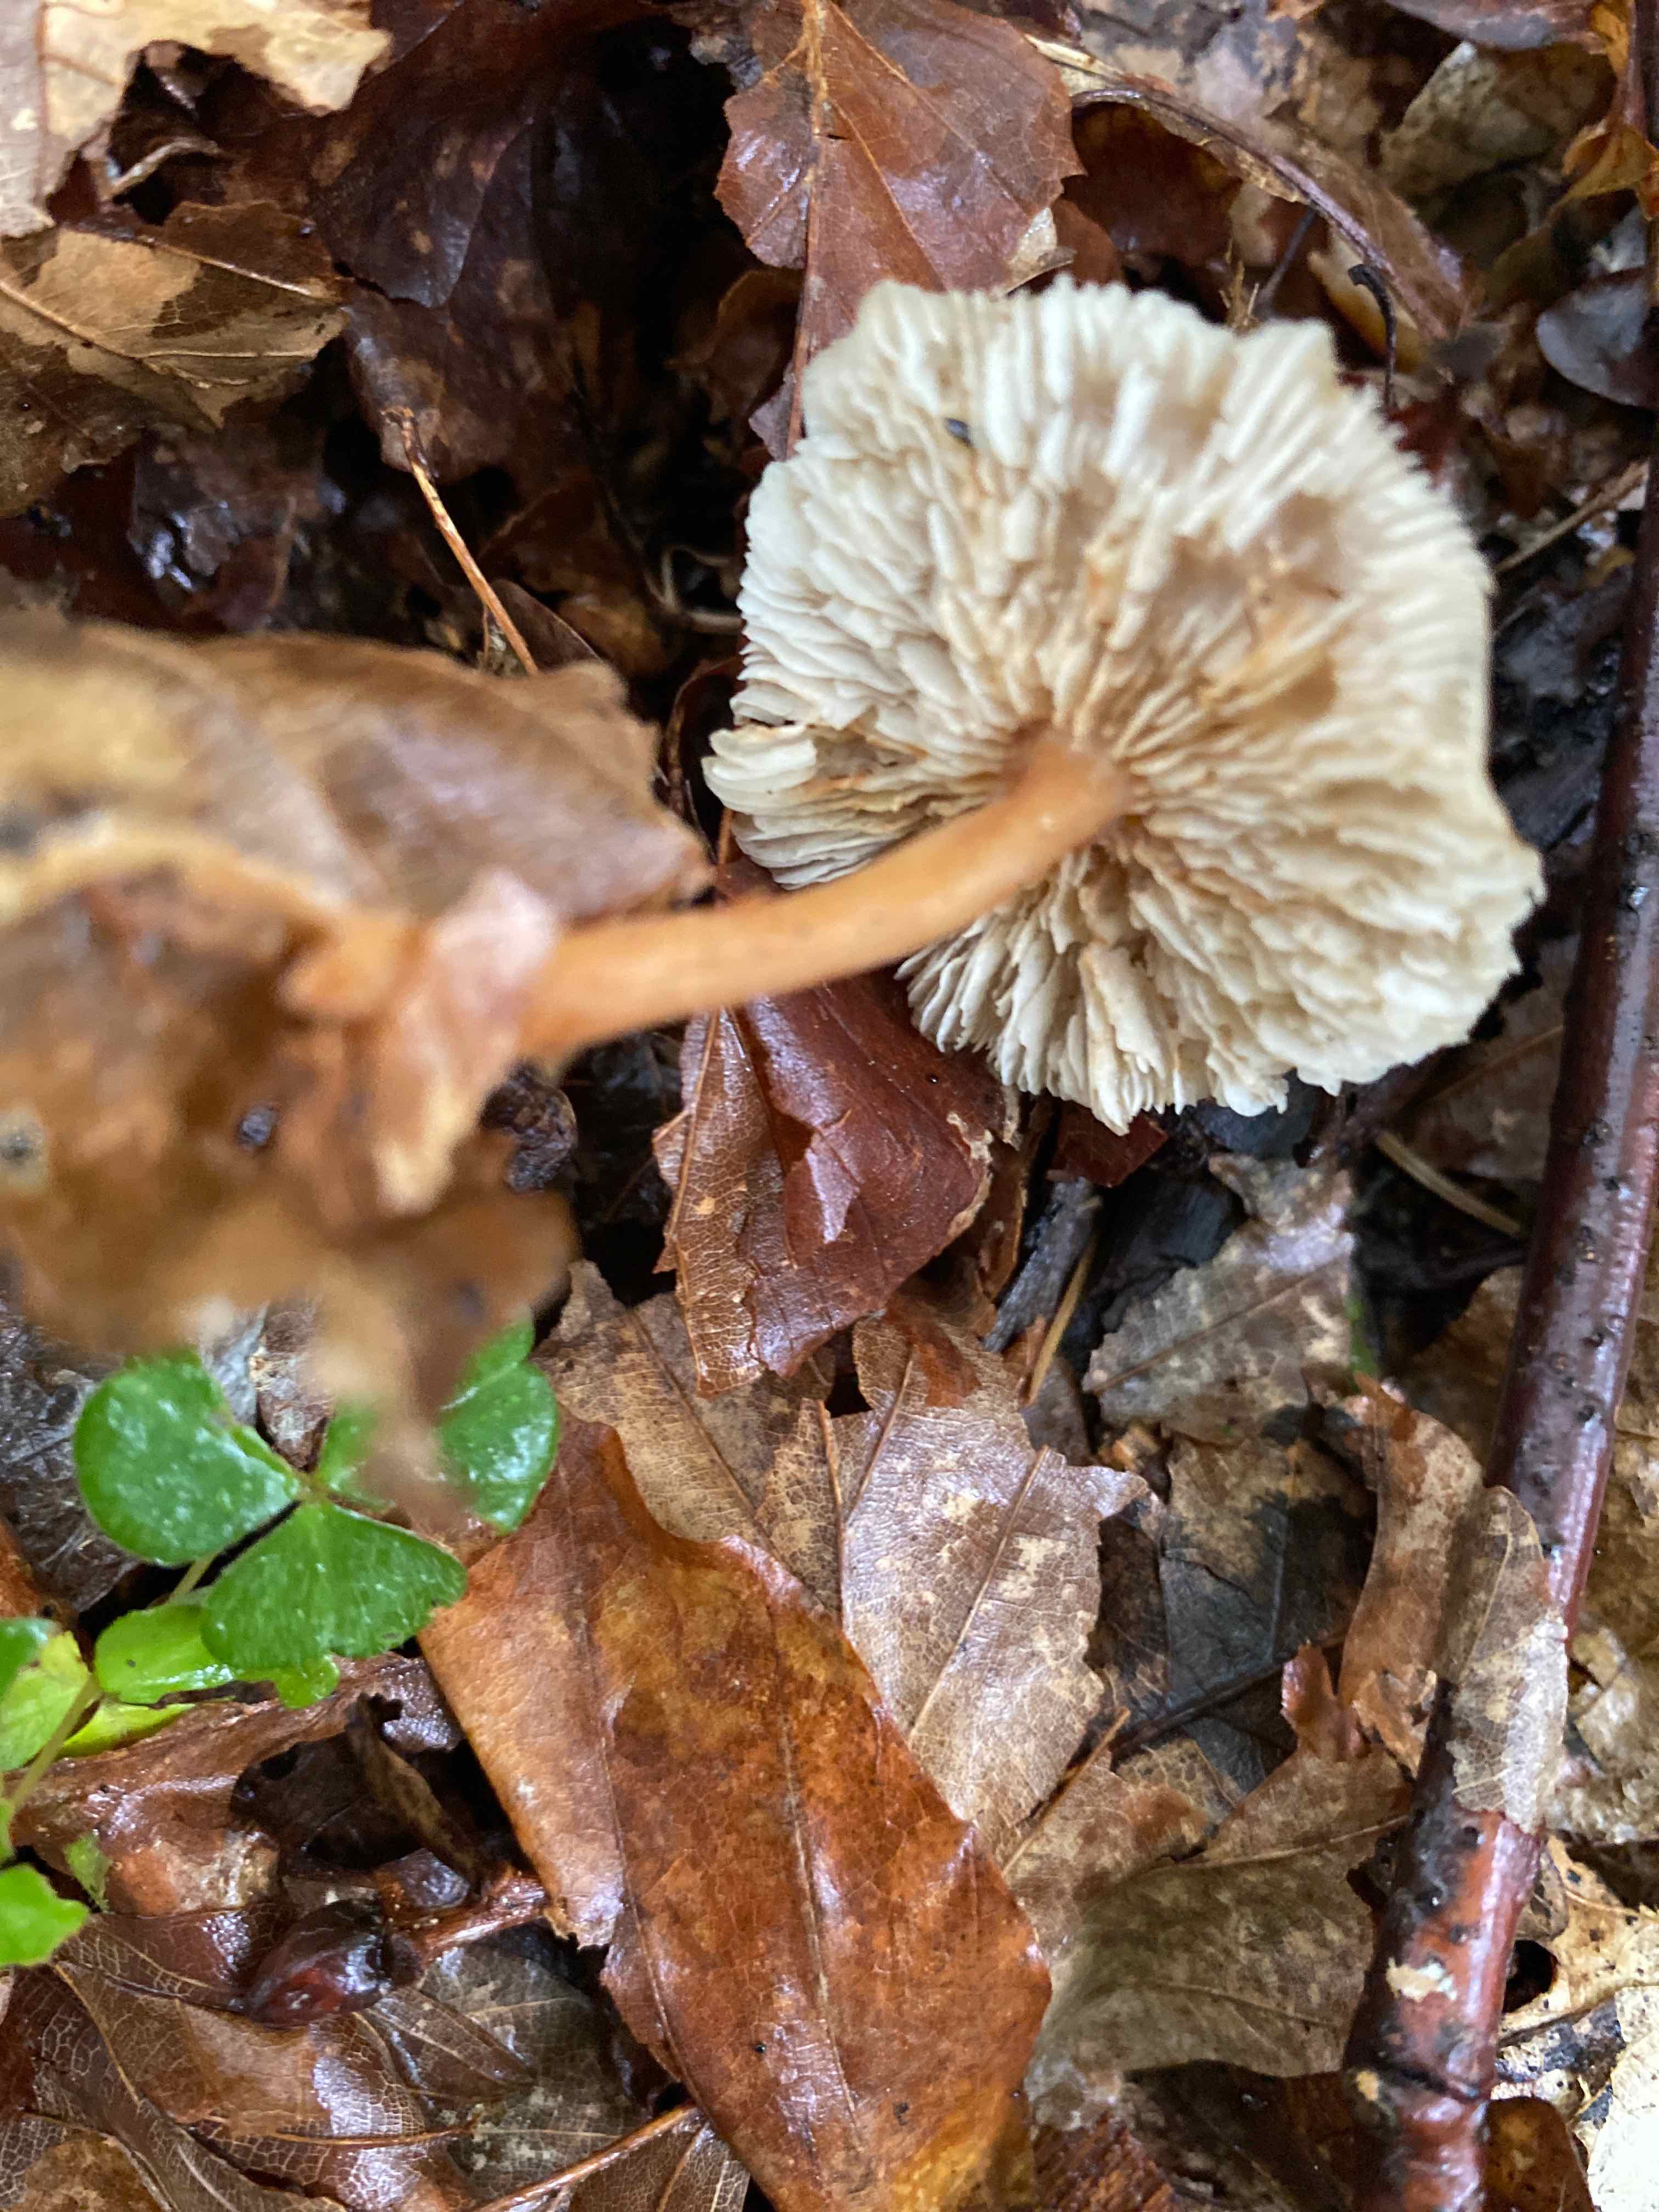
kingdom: Fungi
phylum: Basidiomycota
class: Agaricomycetes
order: Agaricales
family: Omphalotaceae
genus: Gymnopus
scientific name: Gymnopus dryophilus
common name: løv-fladhat
